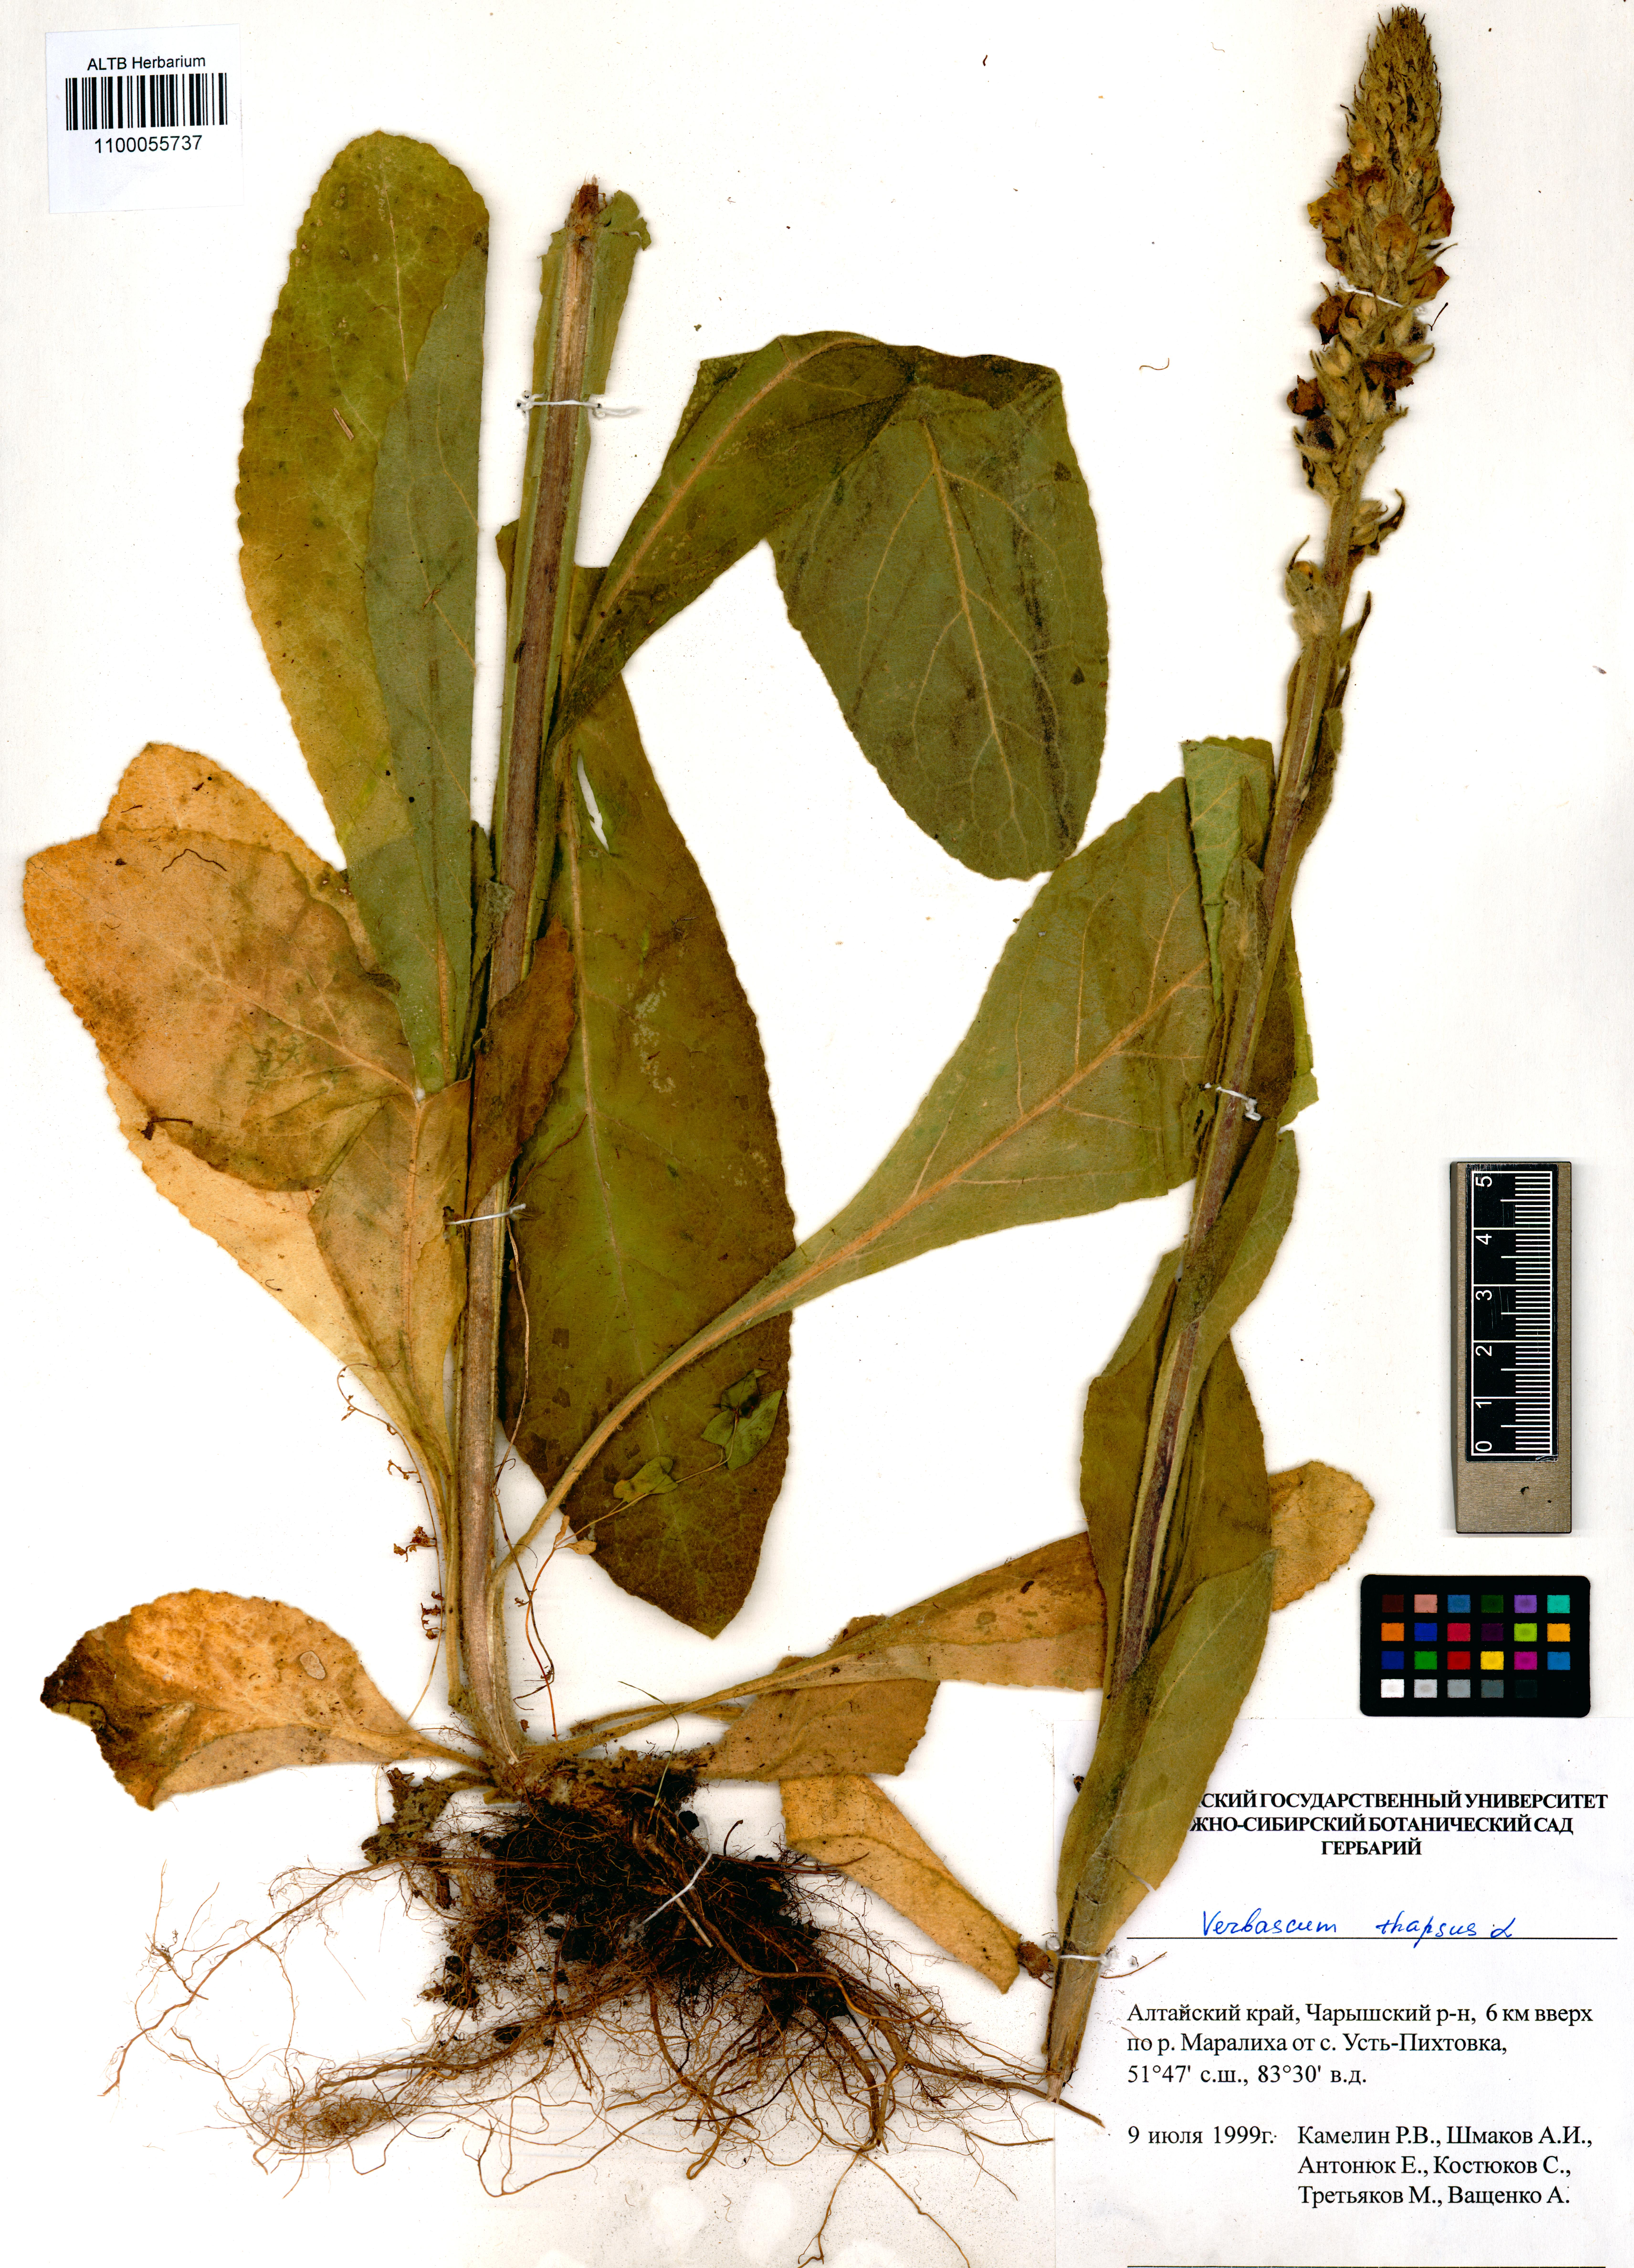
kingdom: Plantae
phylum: Tracheophyta
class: Magnoliopsida
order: Lamiales
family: Scrophulariaceae
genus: Verbascum
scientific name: Verbascum thapsus
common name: Common mullein
